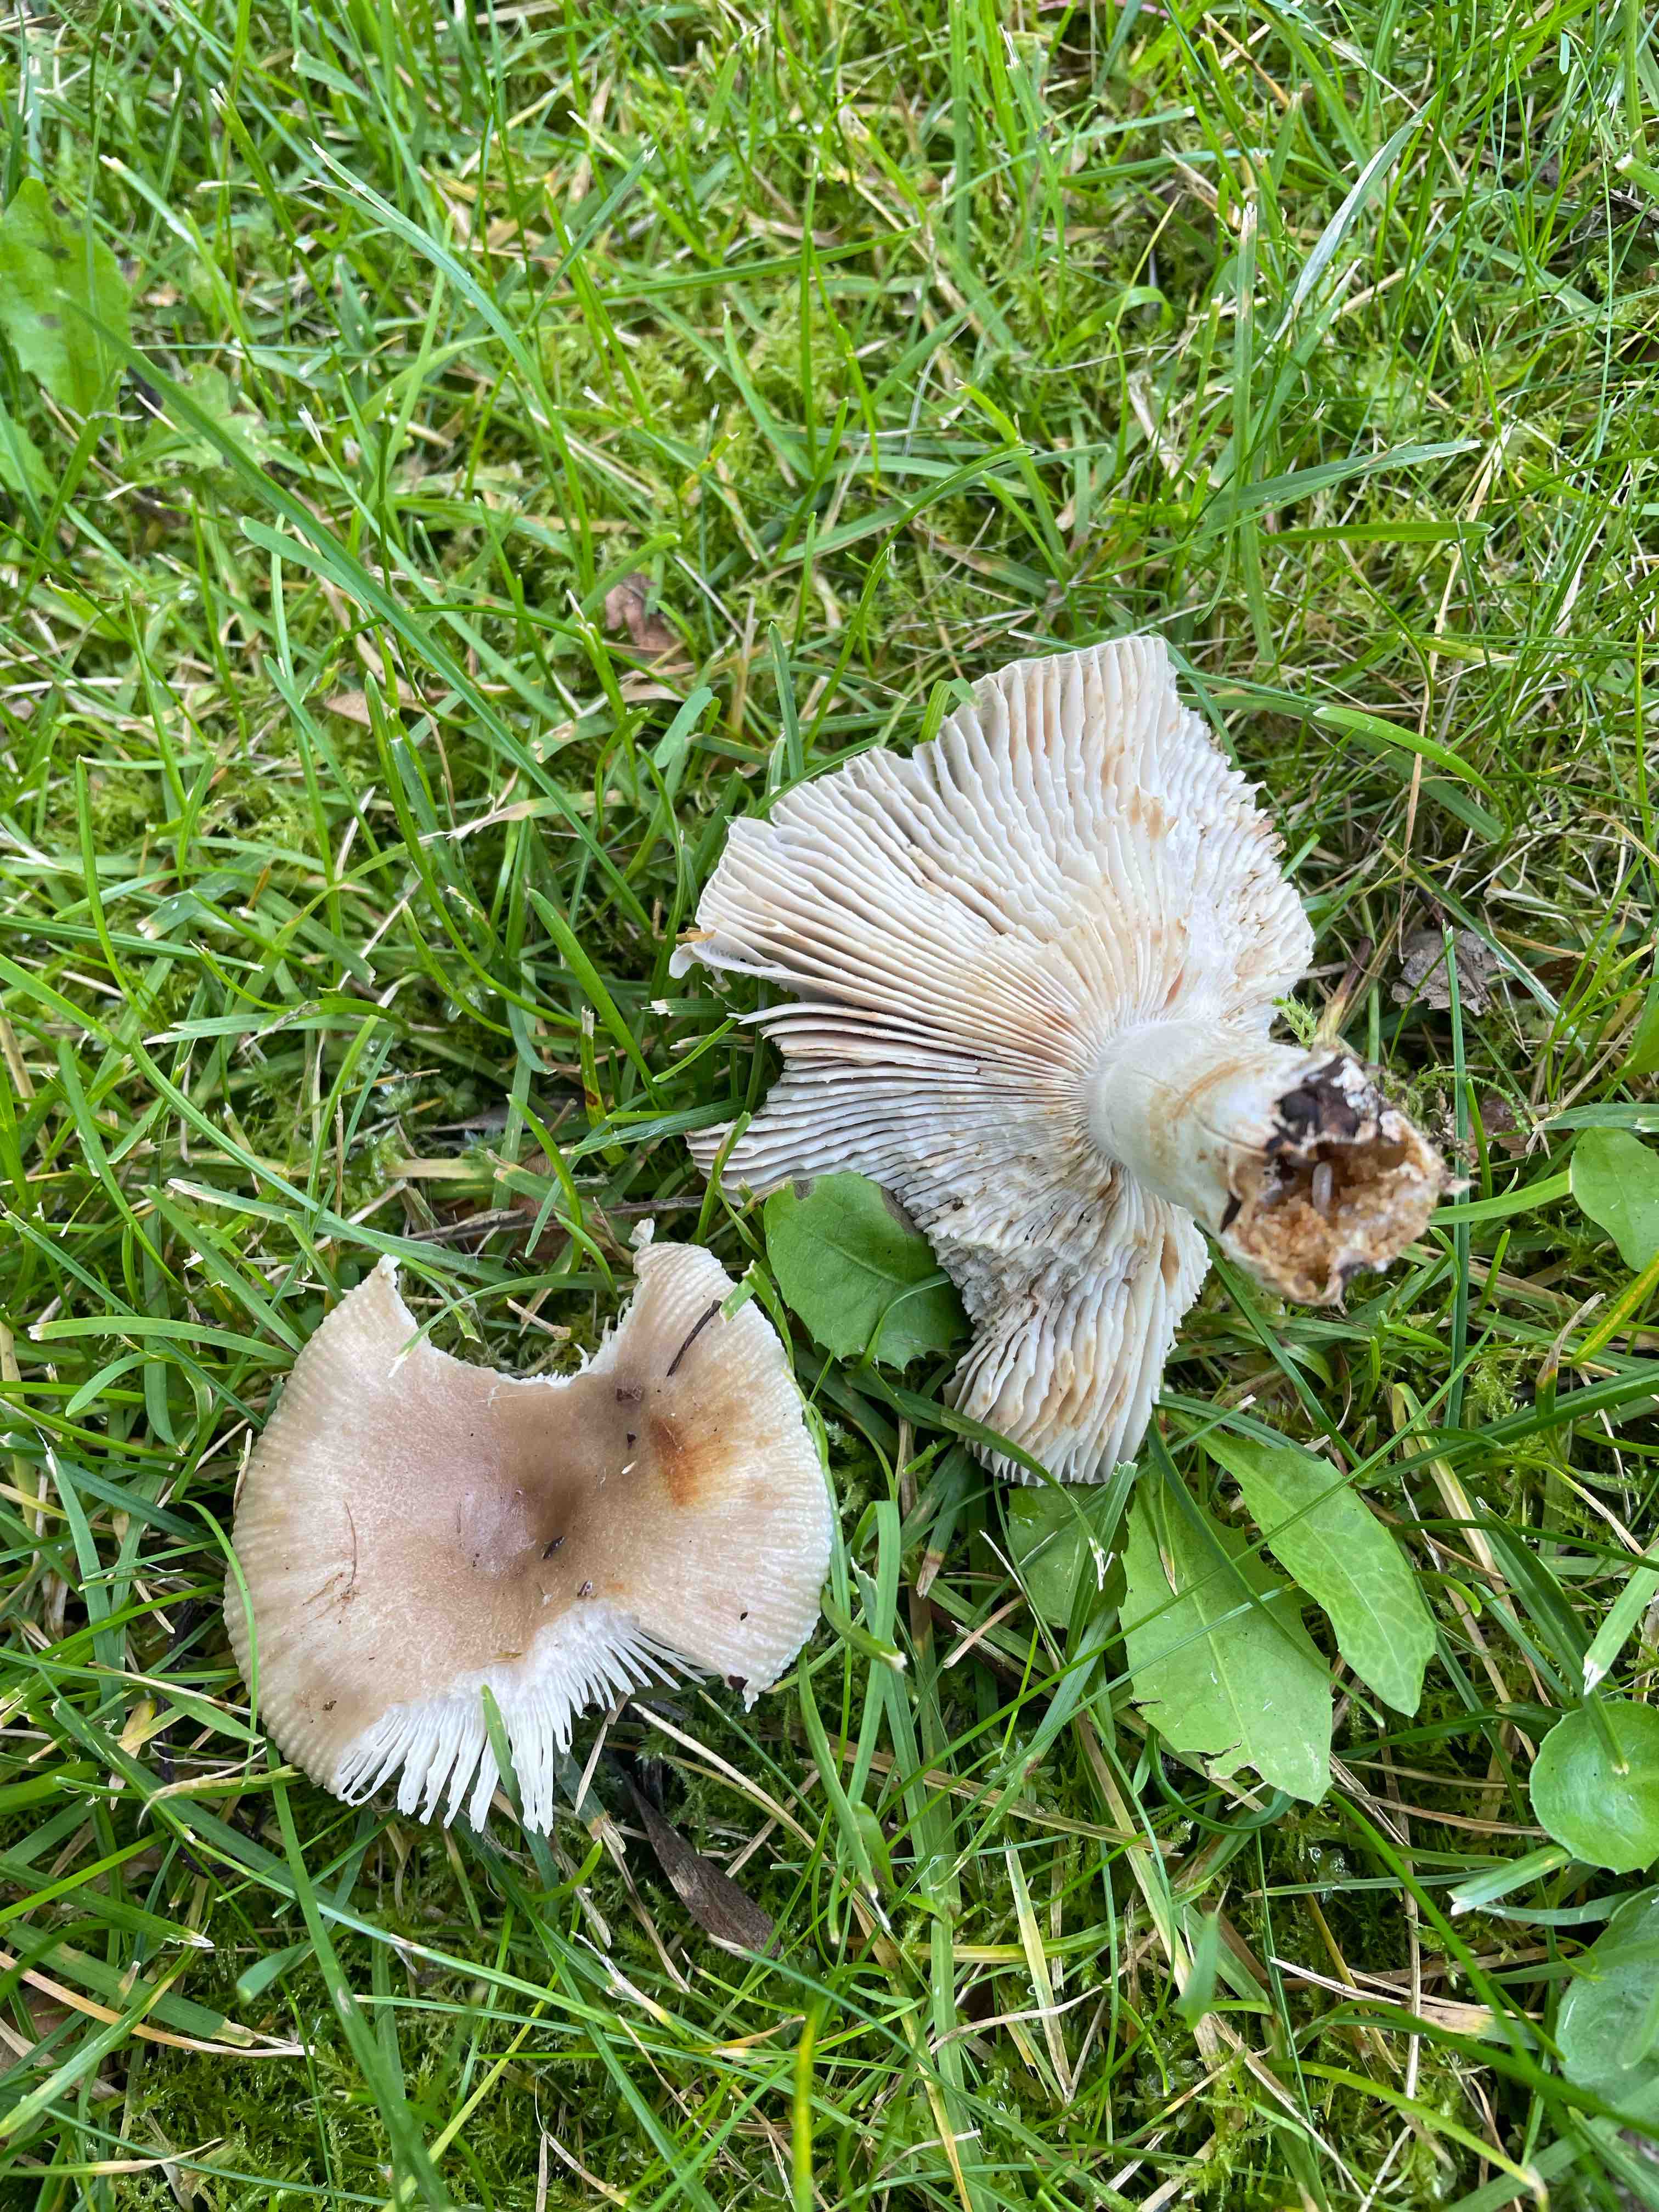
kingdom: Fungi
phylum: Basidiomycota
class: Agaricomycetes
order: Russulales
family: Russulaceae
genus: Russula
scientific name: Russula amoenolens
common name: skarp kam-skørhat
